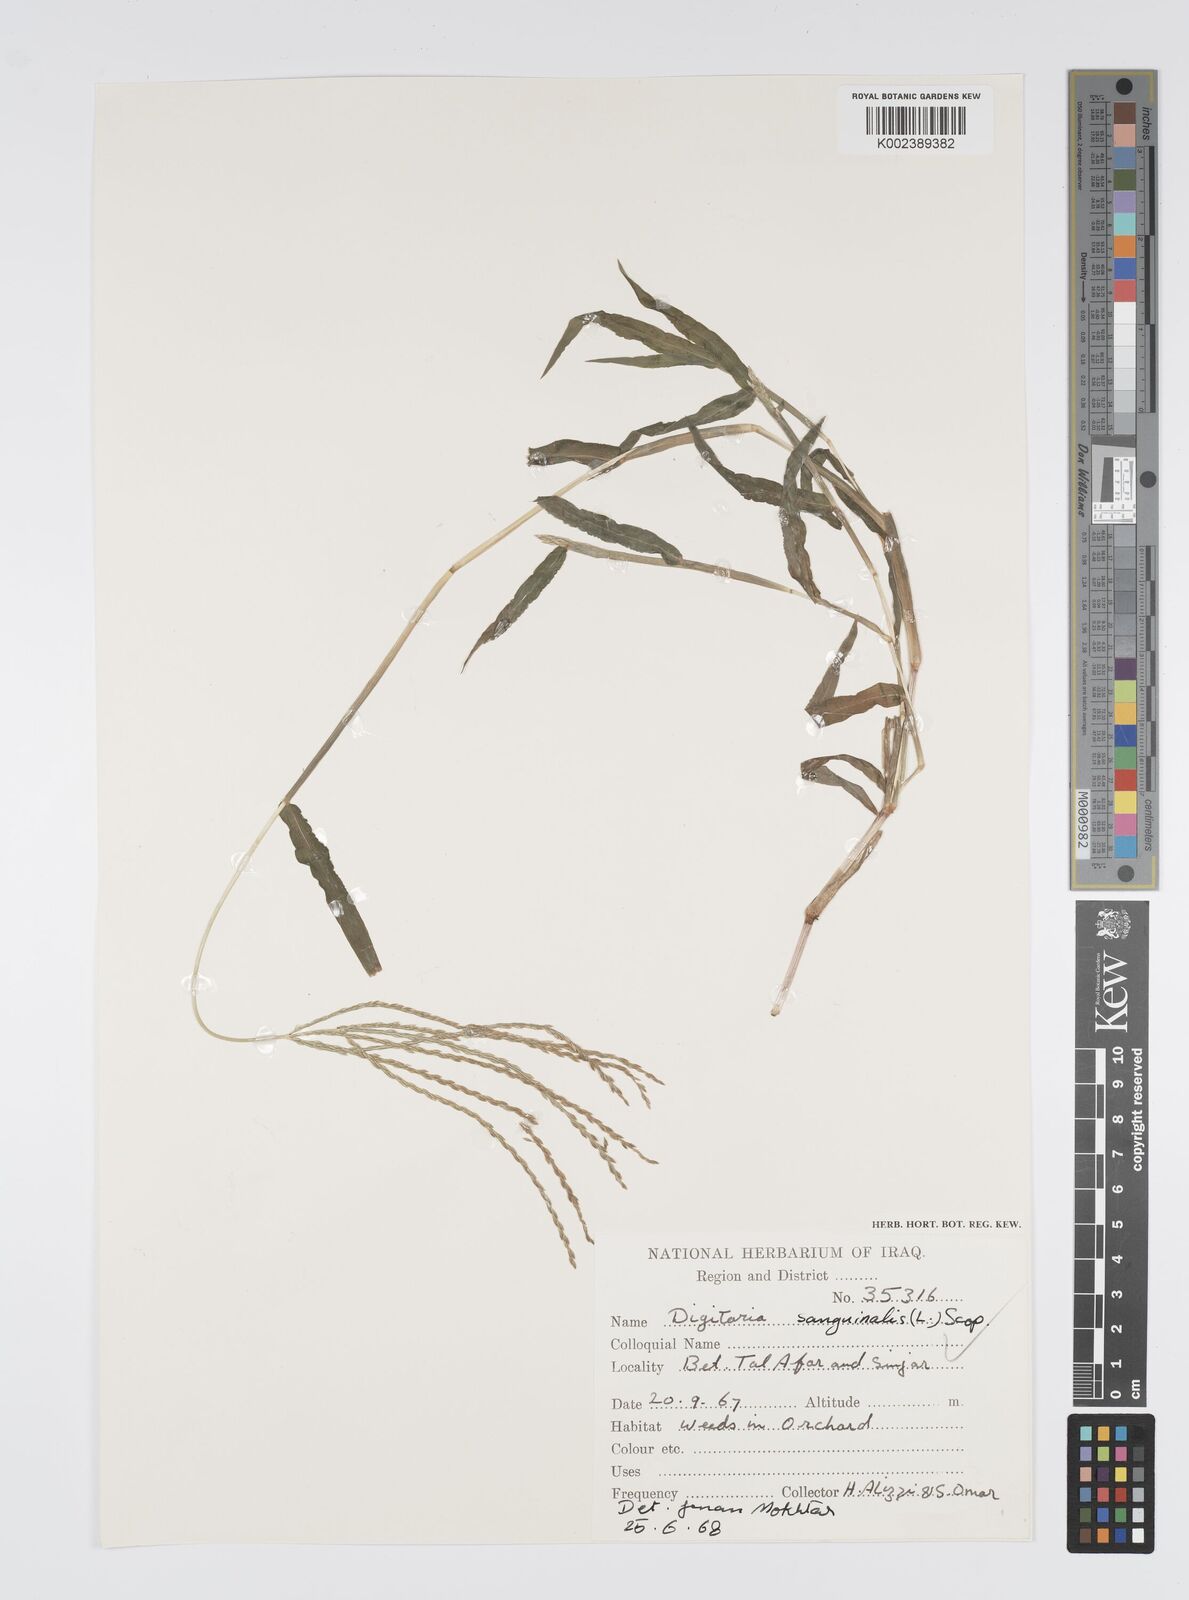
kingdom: Plantae
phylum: Tracheophyta
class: Liliopsida
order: Poales
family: Poaceae
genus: Digitaria
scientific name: Digitaria sanguinalis
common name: Hairy crabgrass
